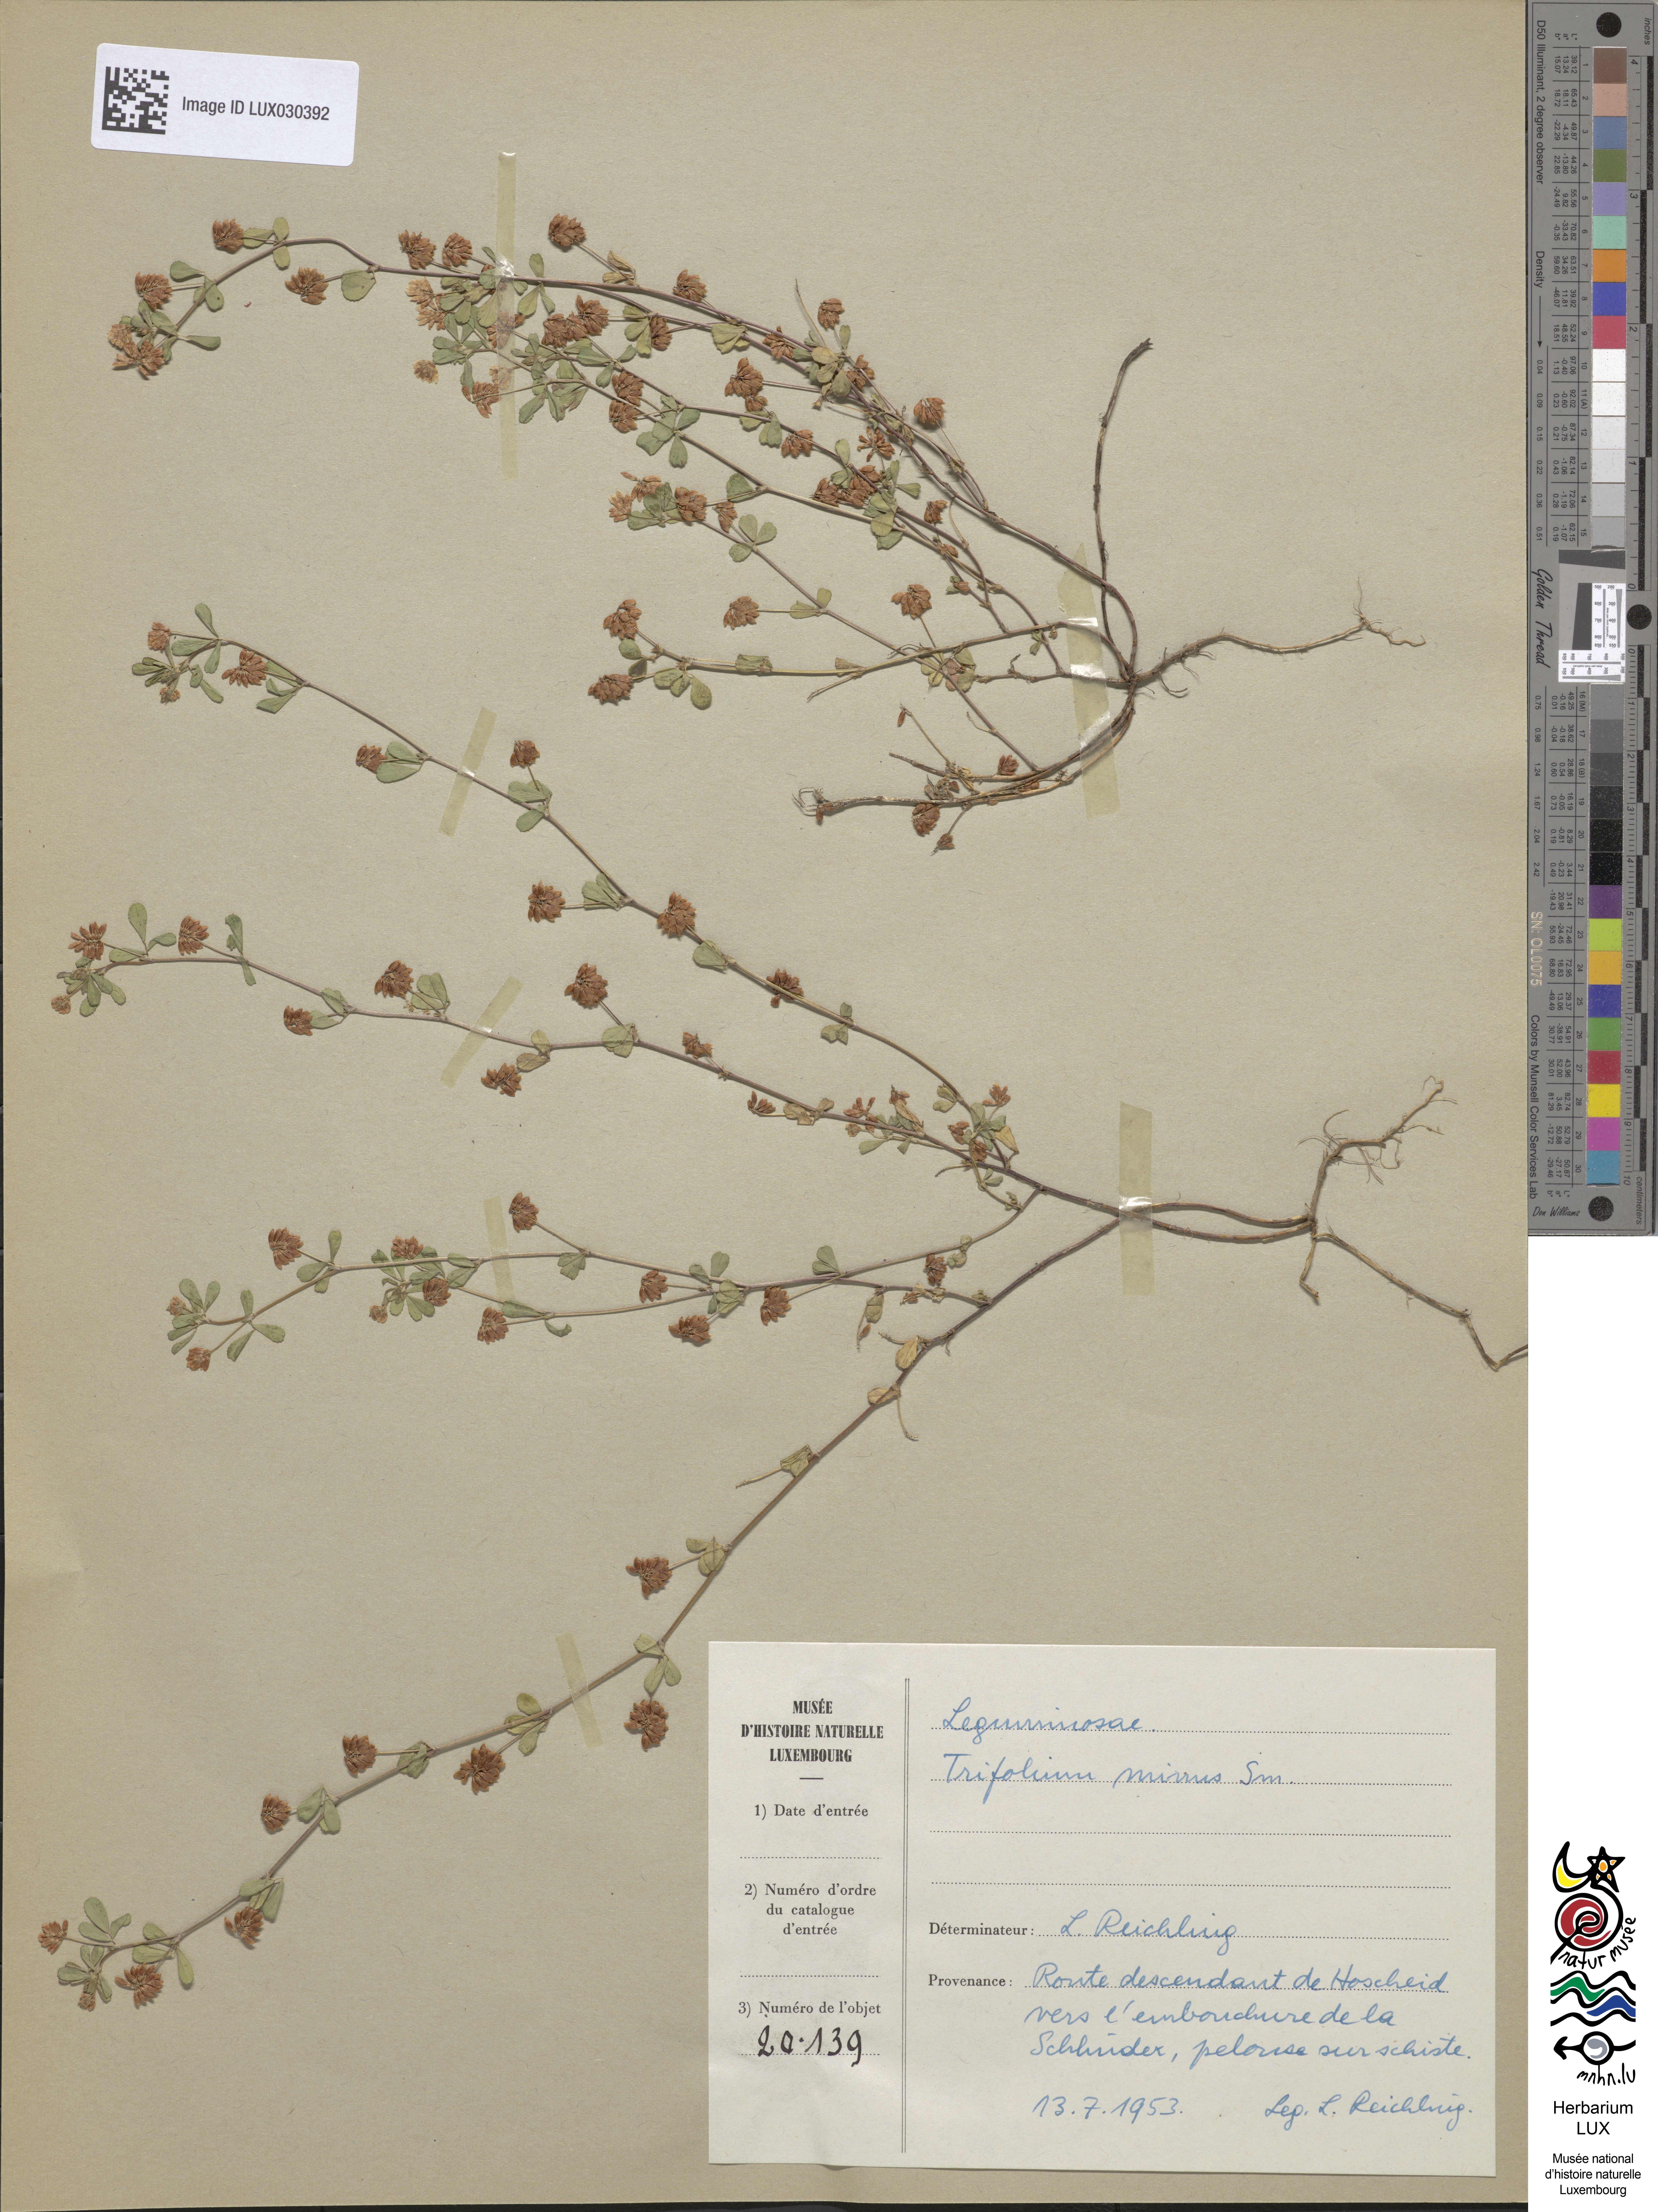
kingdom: Plantae
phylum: Tracheophyta
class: Magnoliopsida
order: Fabales
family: Fabaceae
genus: Trifolium
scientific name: Trifolium dubium
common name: Suckling clover
